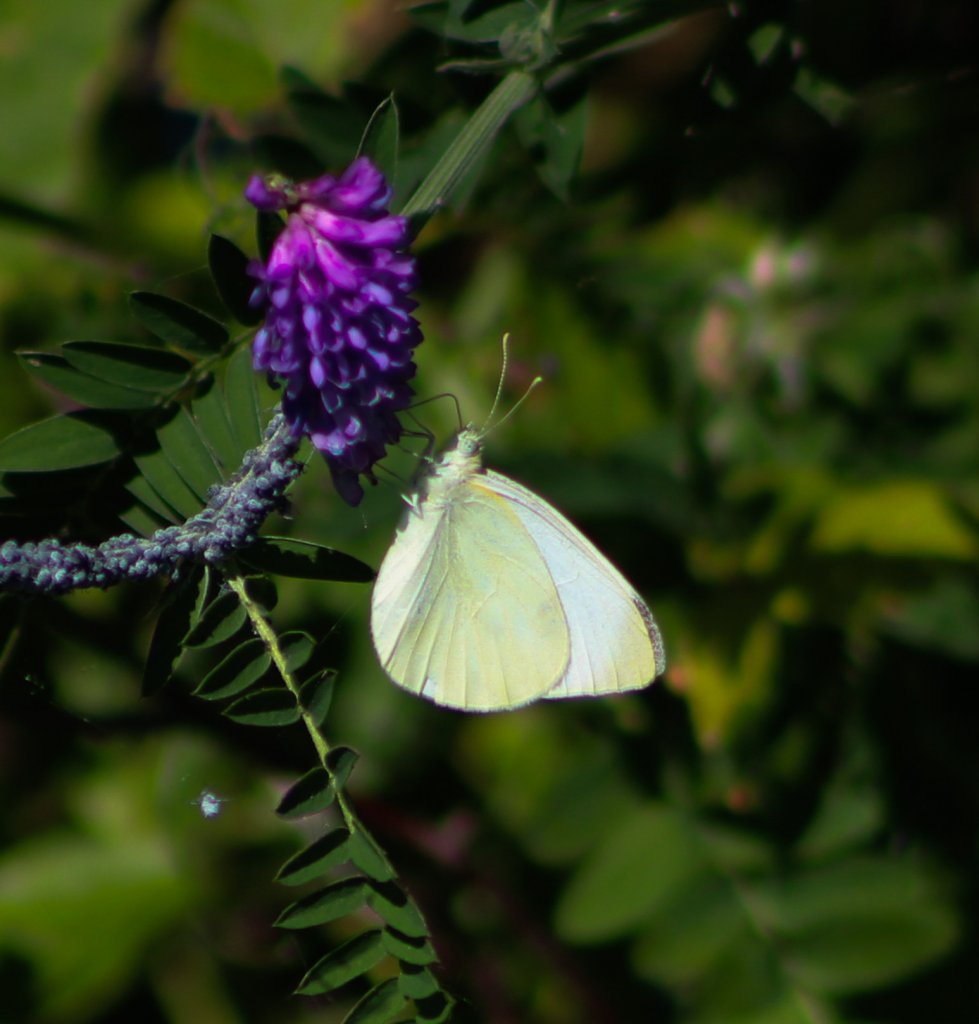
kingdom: Animalia
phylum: Arthropoda
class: Insecta
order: Lepidoptera
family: Pieridae
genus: Pieris
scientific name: Pieris rapae
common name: Cabbage White
